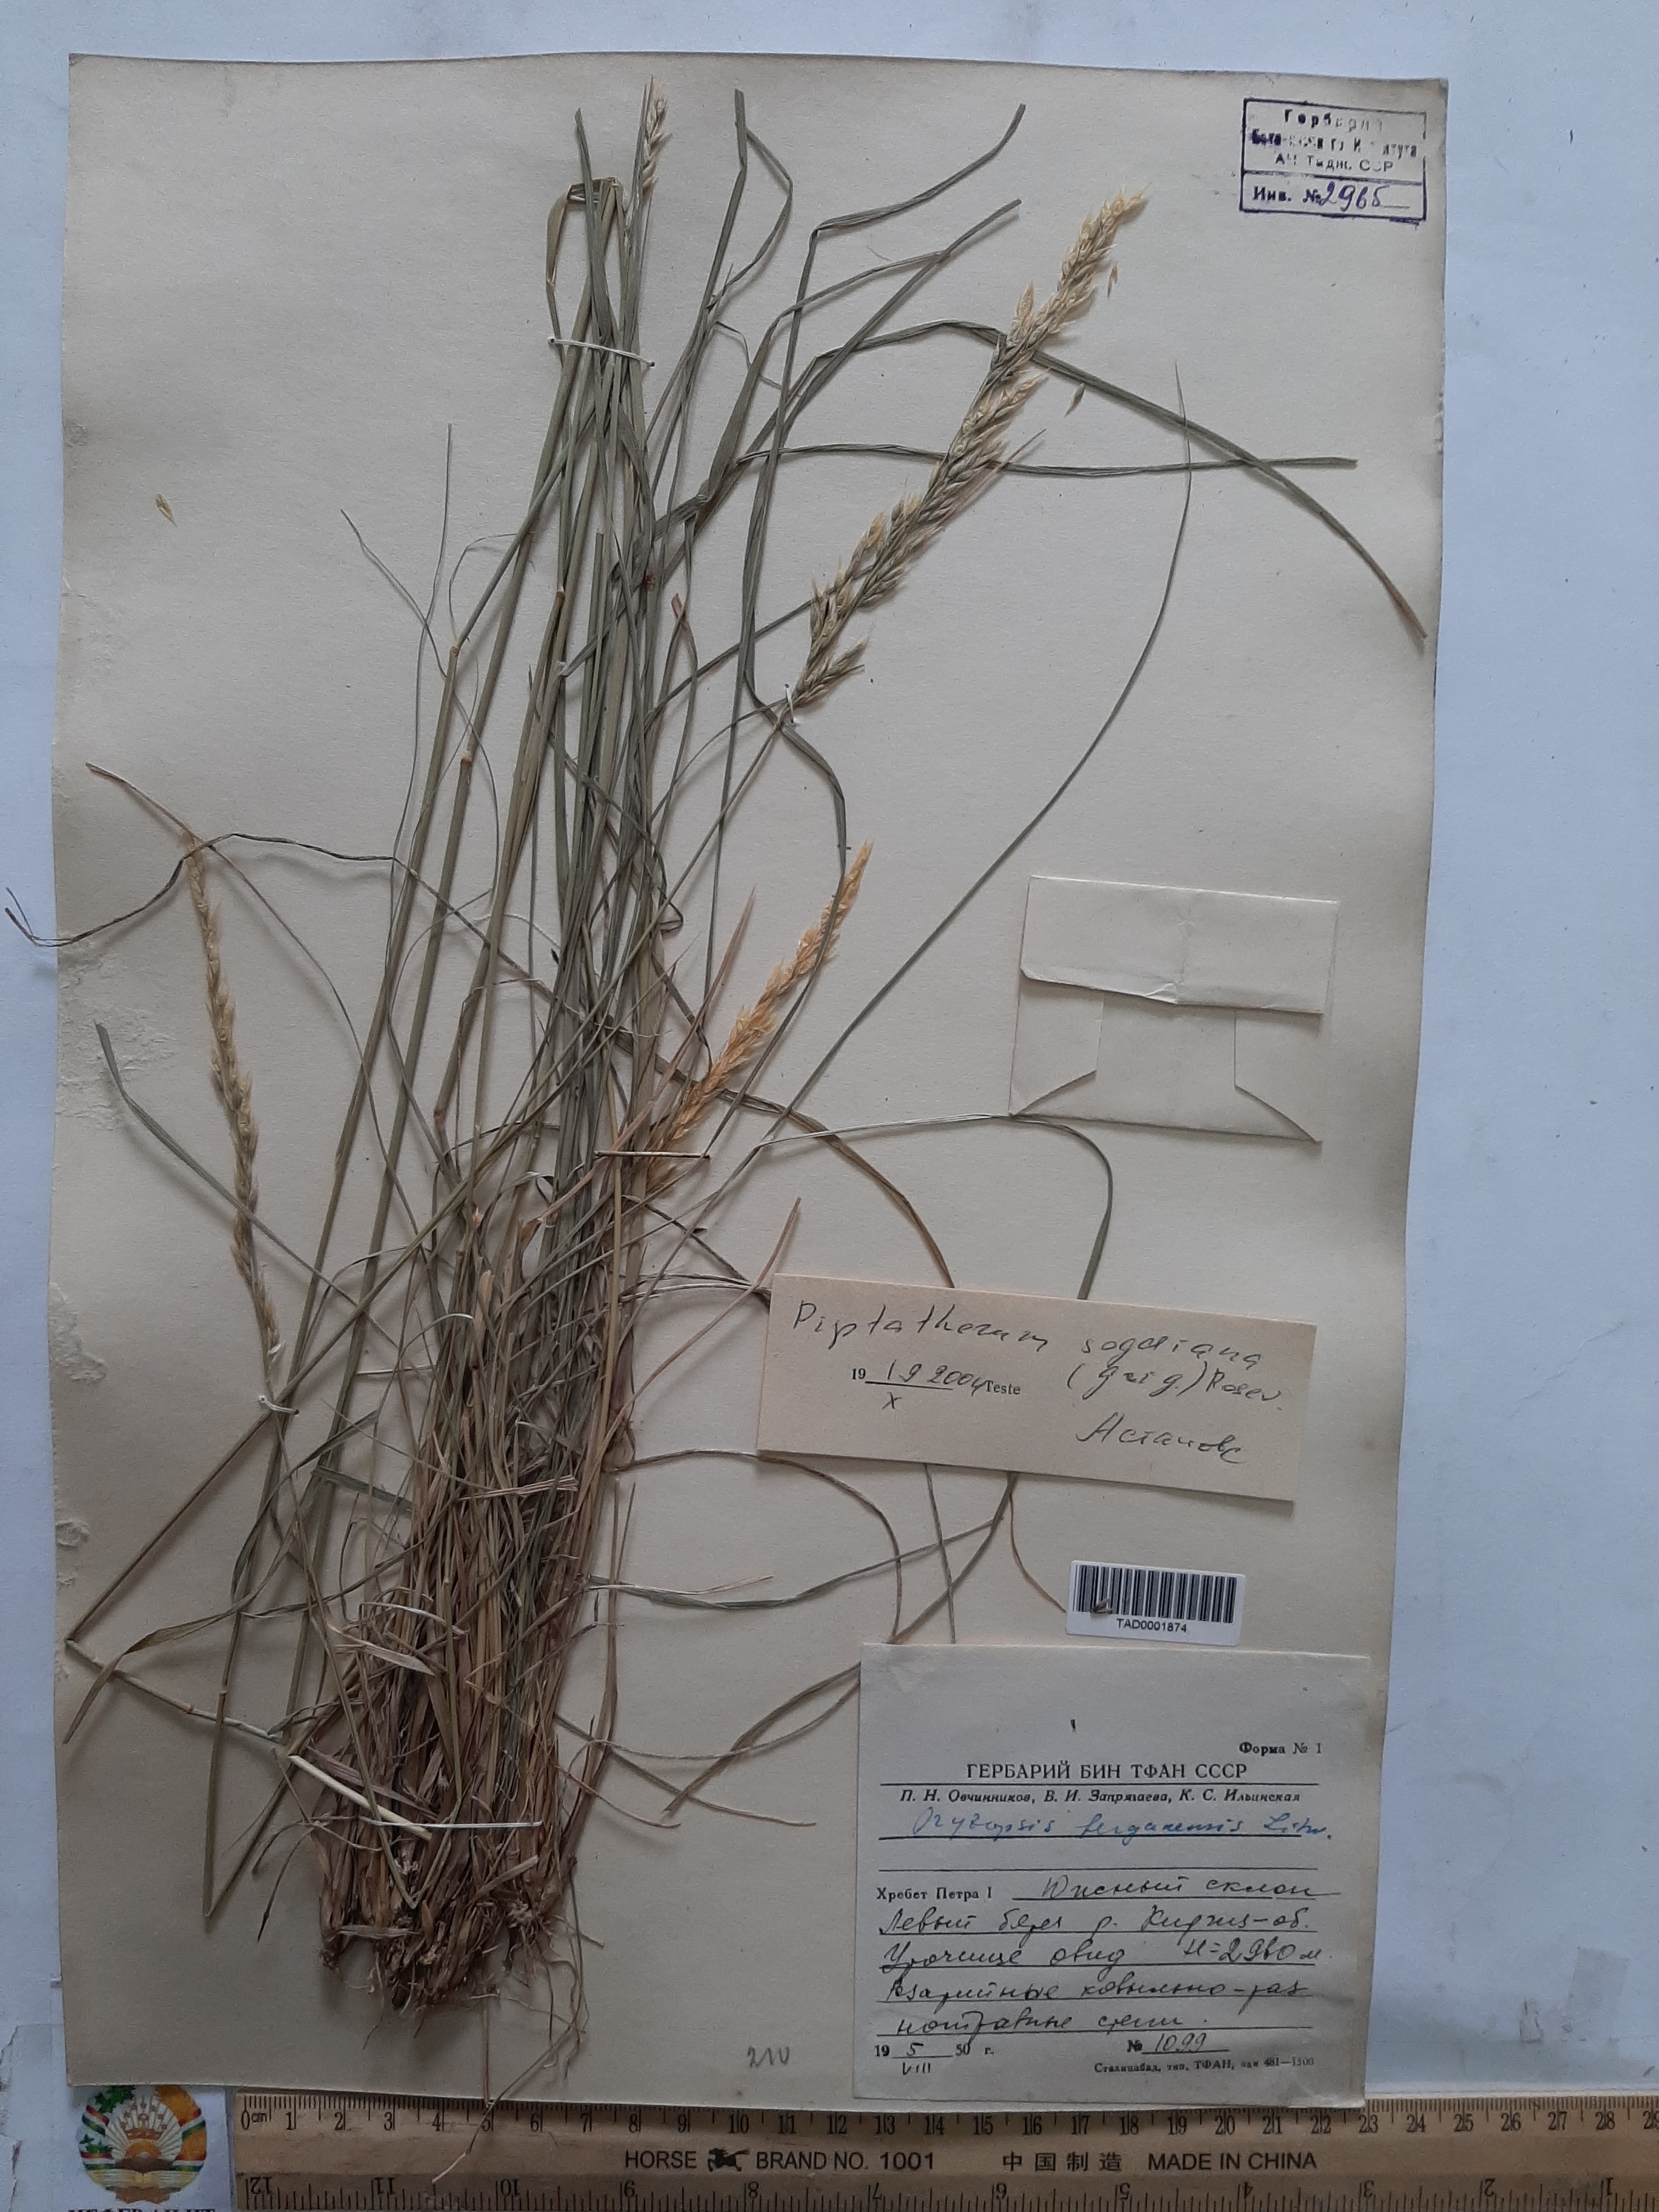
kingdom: Plantae
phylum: Tracheophyta
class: Liliopsida
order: Poales
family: Poaceae
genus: Piptatherum
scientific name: Piptatherum sogdianum
